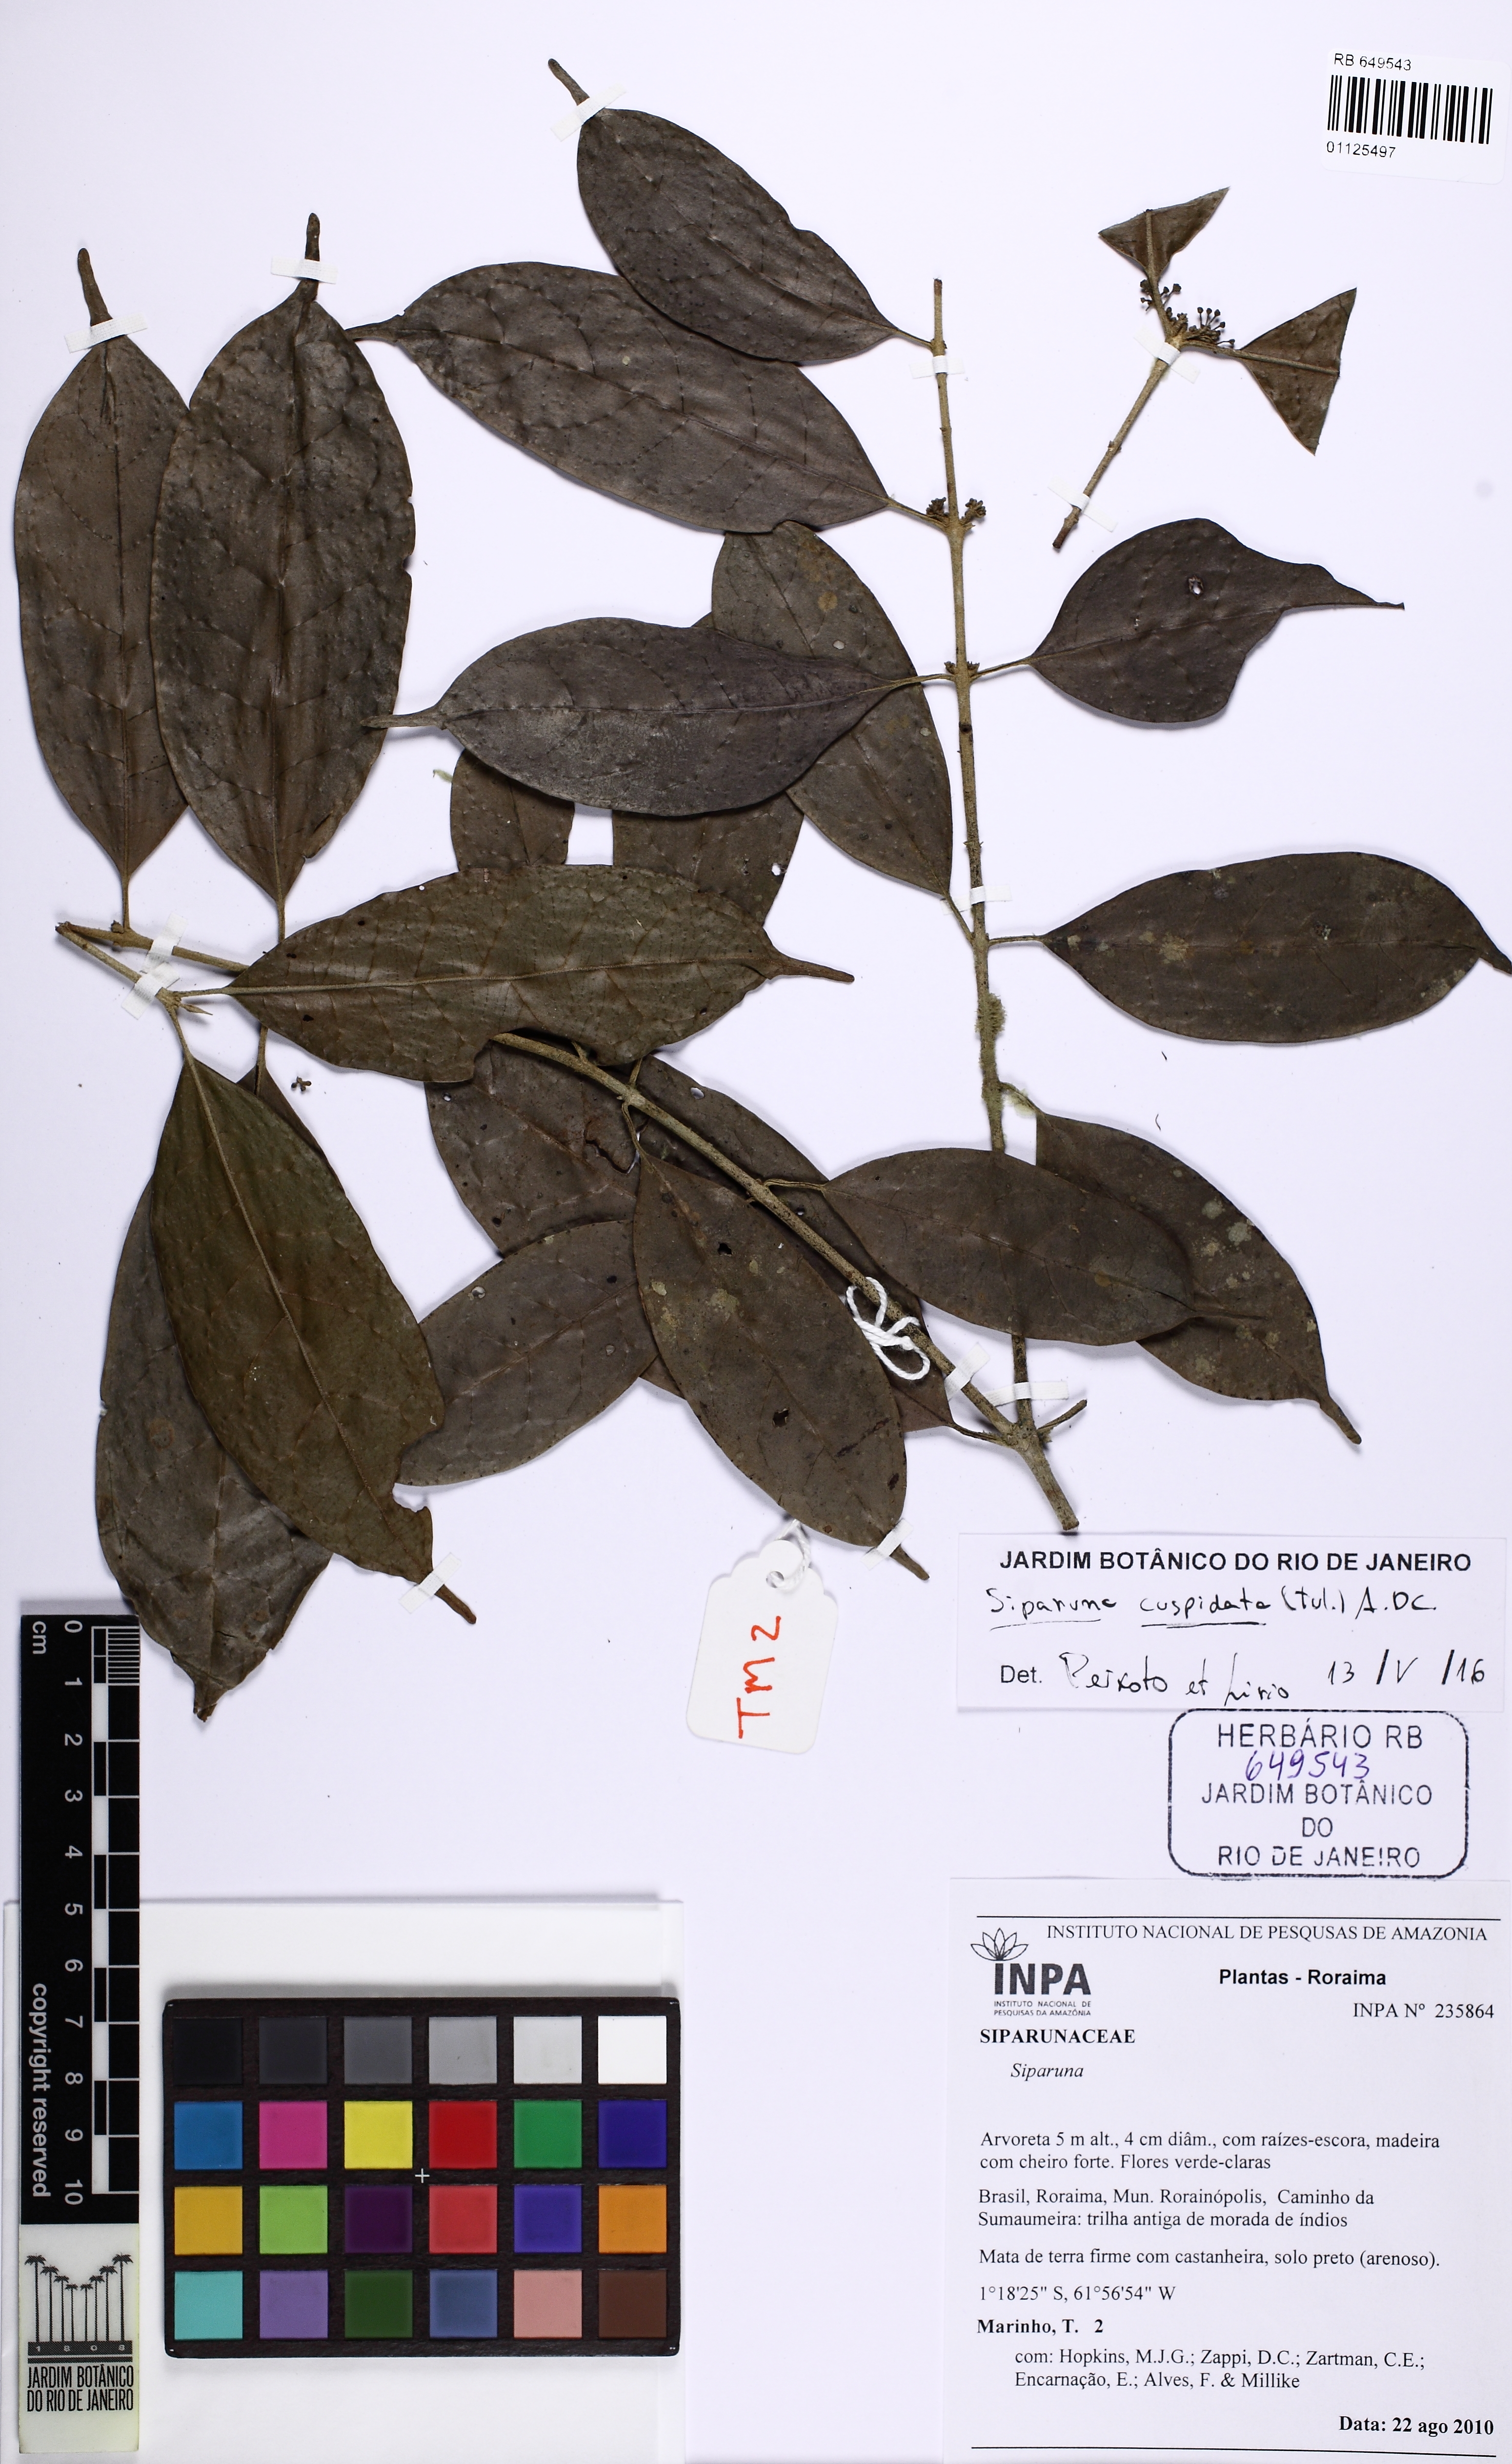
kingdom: Plantae
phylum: Tracheophyta
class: Magnoliopsida
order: Laurales
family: Siparunaceae
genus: Siparuna
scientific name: Siparuna cuspidata
